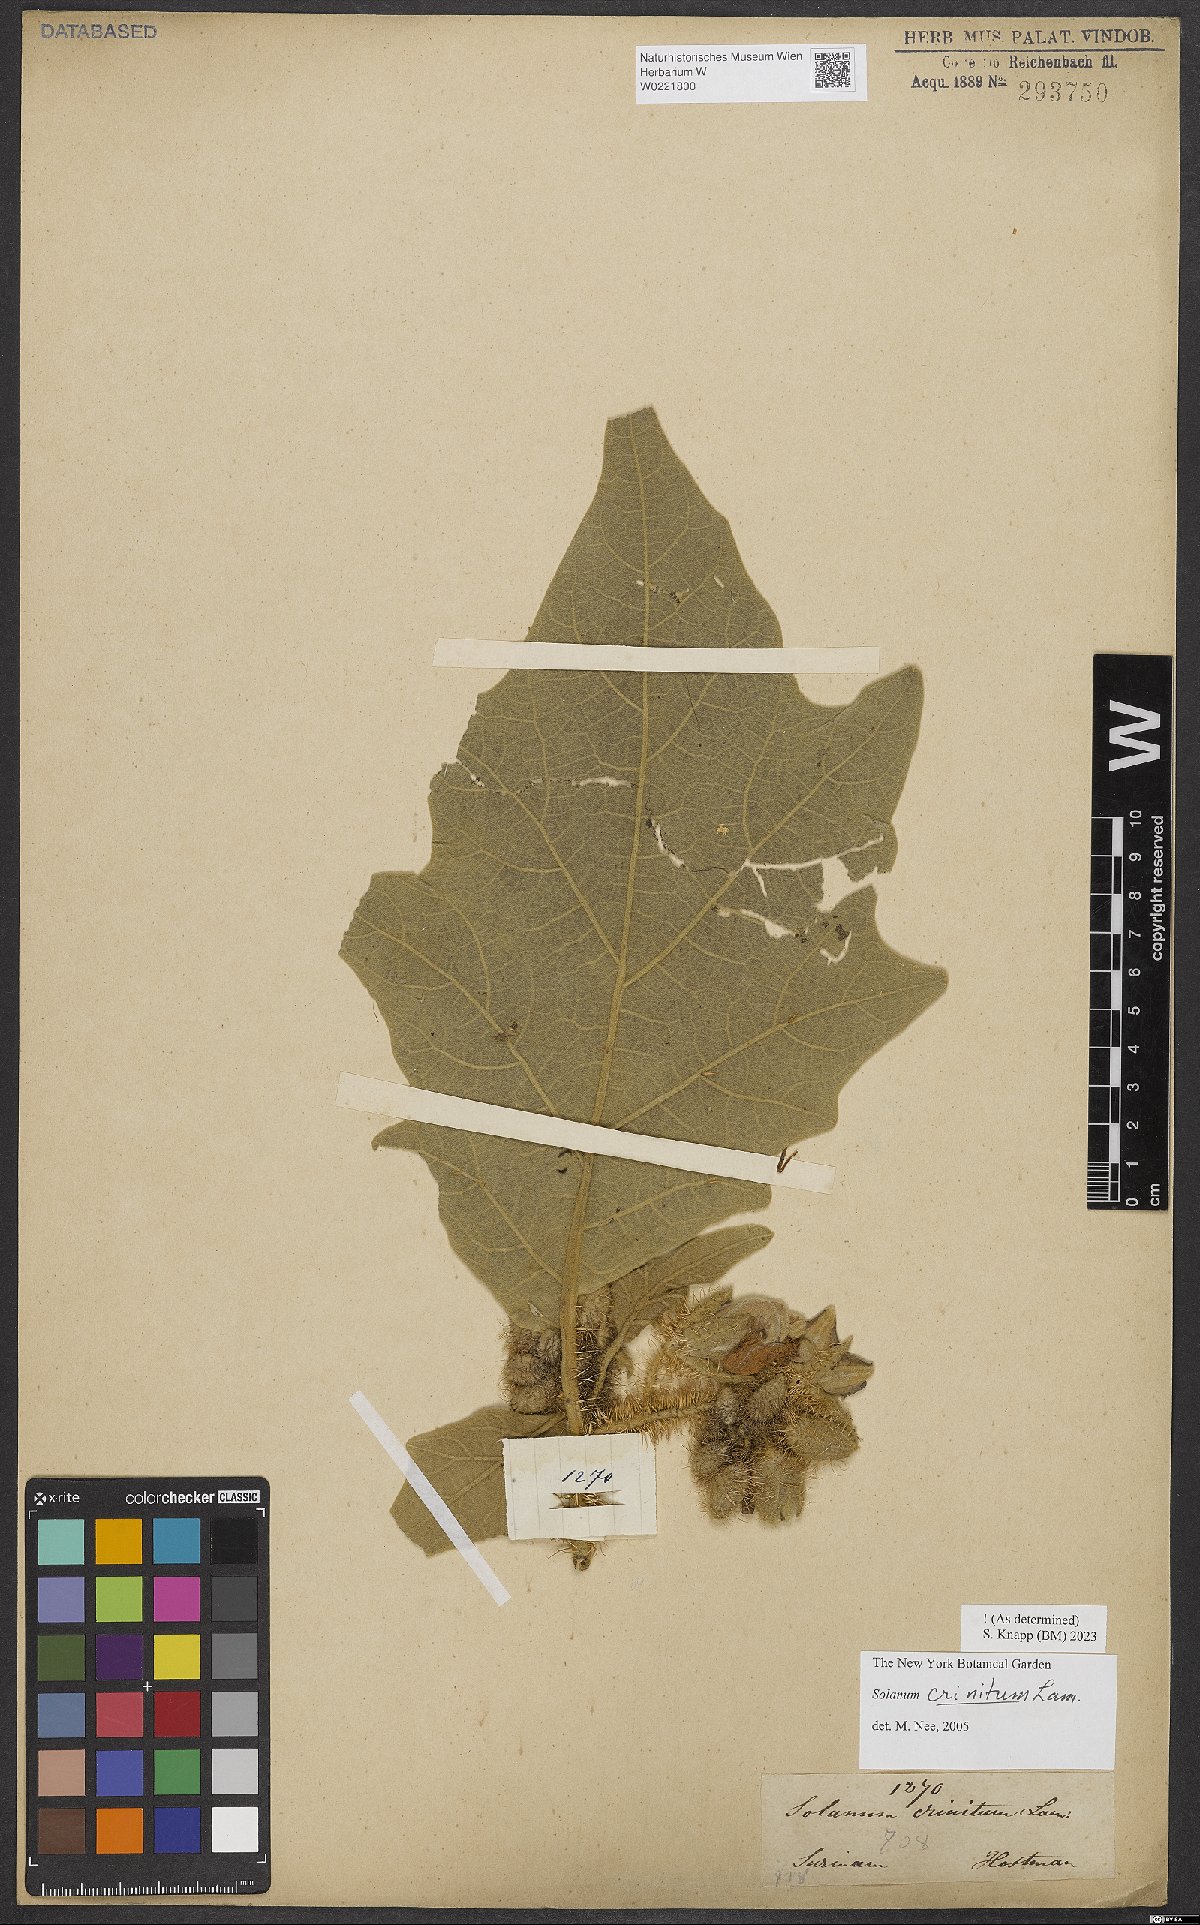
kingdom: Plantae
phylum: Tracheophyta
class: Magnoliopsida
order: Solanales
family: Solanaceae
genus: Solanum
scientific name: Solanum crinitum
